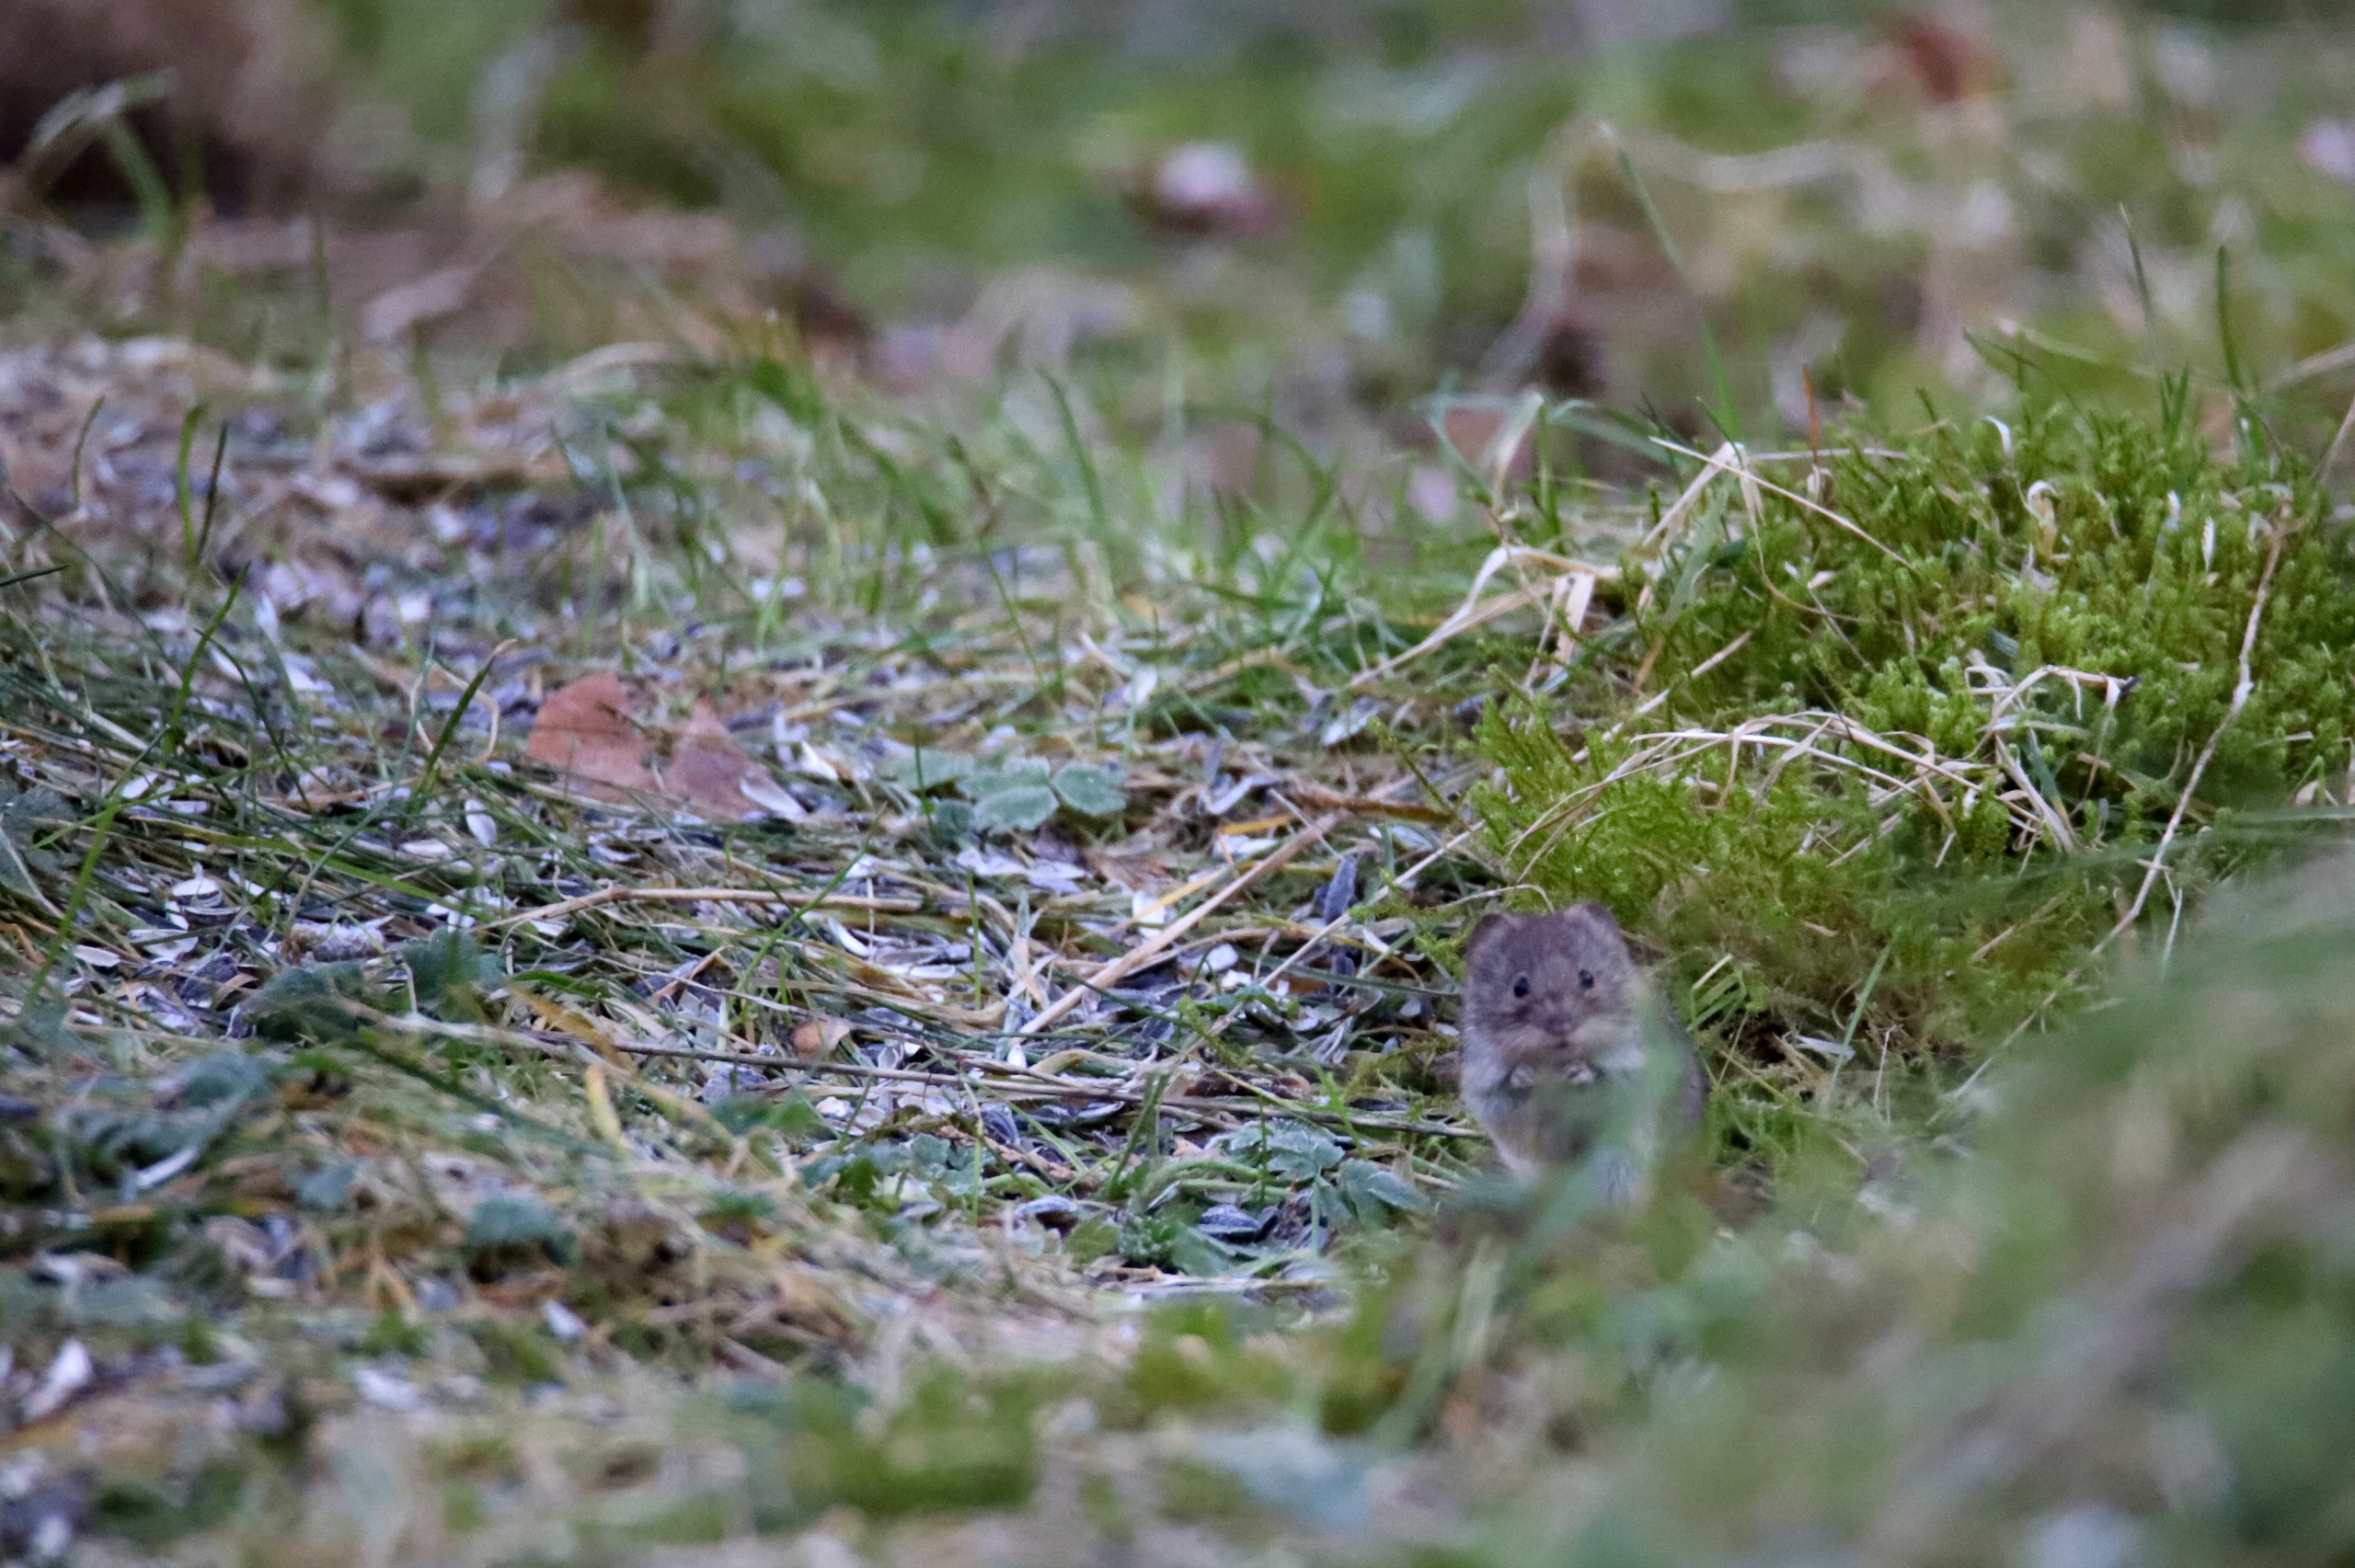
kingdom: Animalia
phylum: Chordata
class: Mammalia
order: Rodentia
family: Cricetidae
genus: Myodes
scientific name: Myodes glareolus
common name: Rødmus
